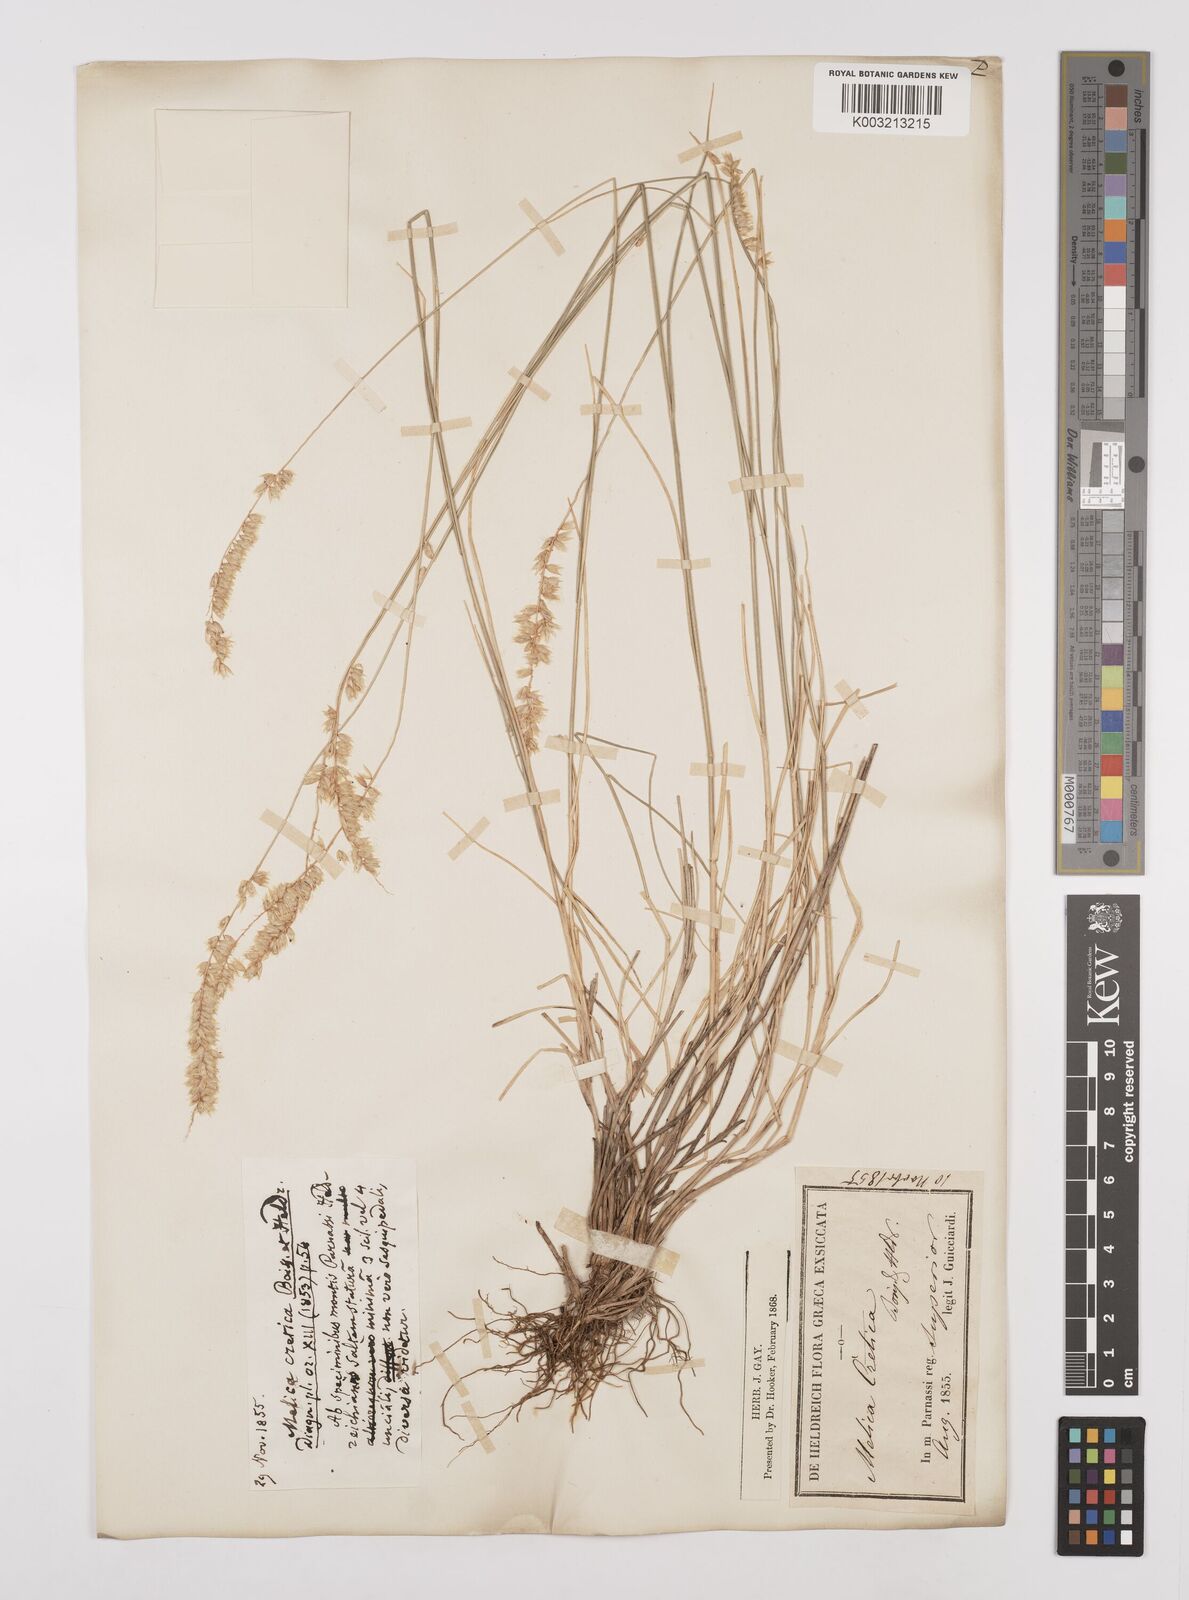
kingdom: Plantae
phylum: Tracheophyta
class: Liliopsida
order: Poales
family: Poaceae
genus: Melica
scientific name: Melica ciliata
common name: Hairy melicgrass
